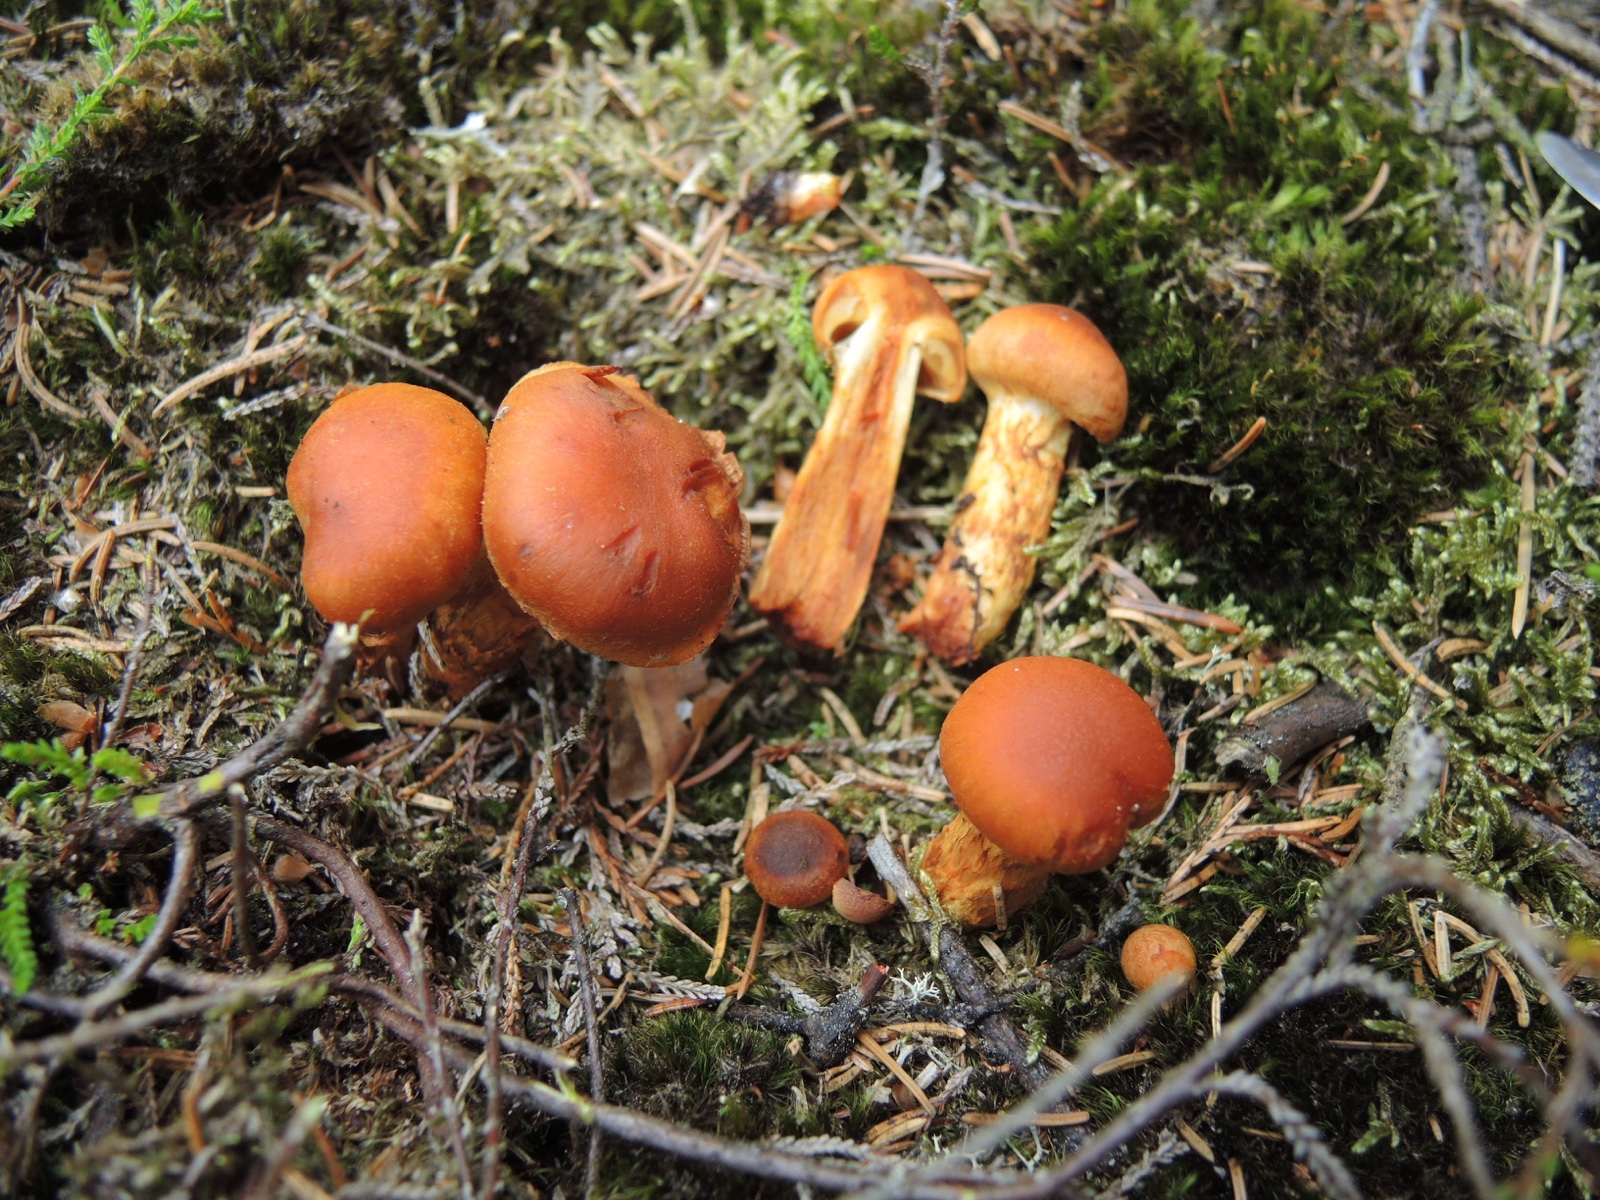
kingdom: Fungi
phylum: Basidiomycota
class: Agaricomycetes
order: Agaricales
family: Cortinariaceae
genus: Aureonarius
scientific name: Aureonarius limonius
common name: orangegul slørhat
